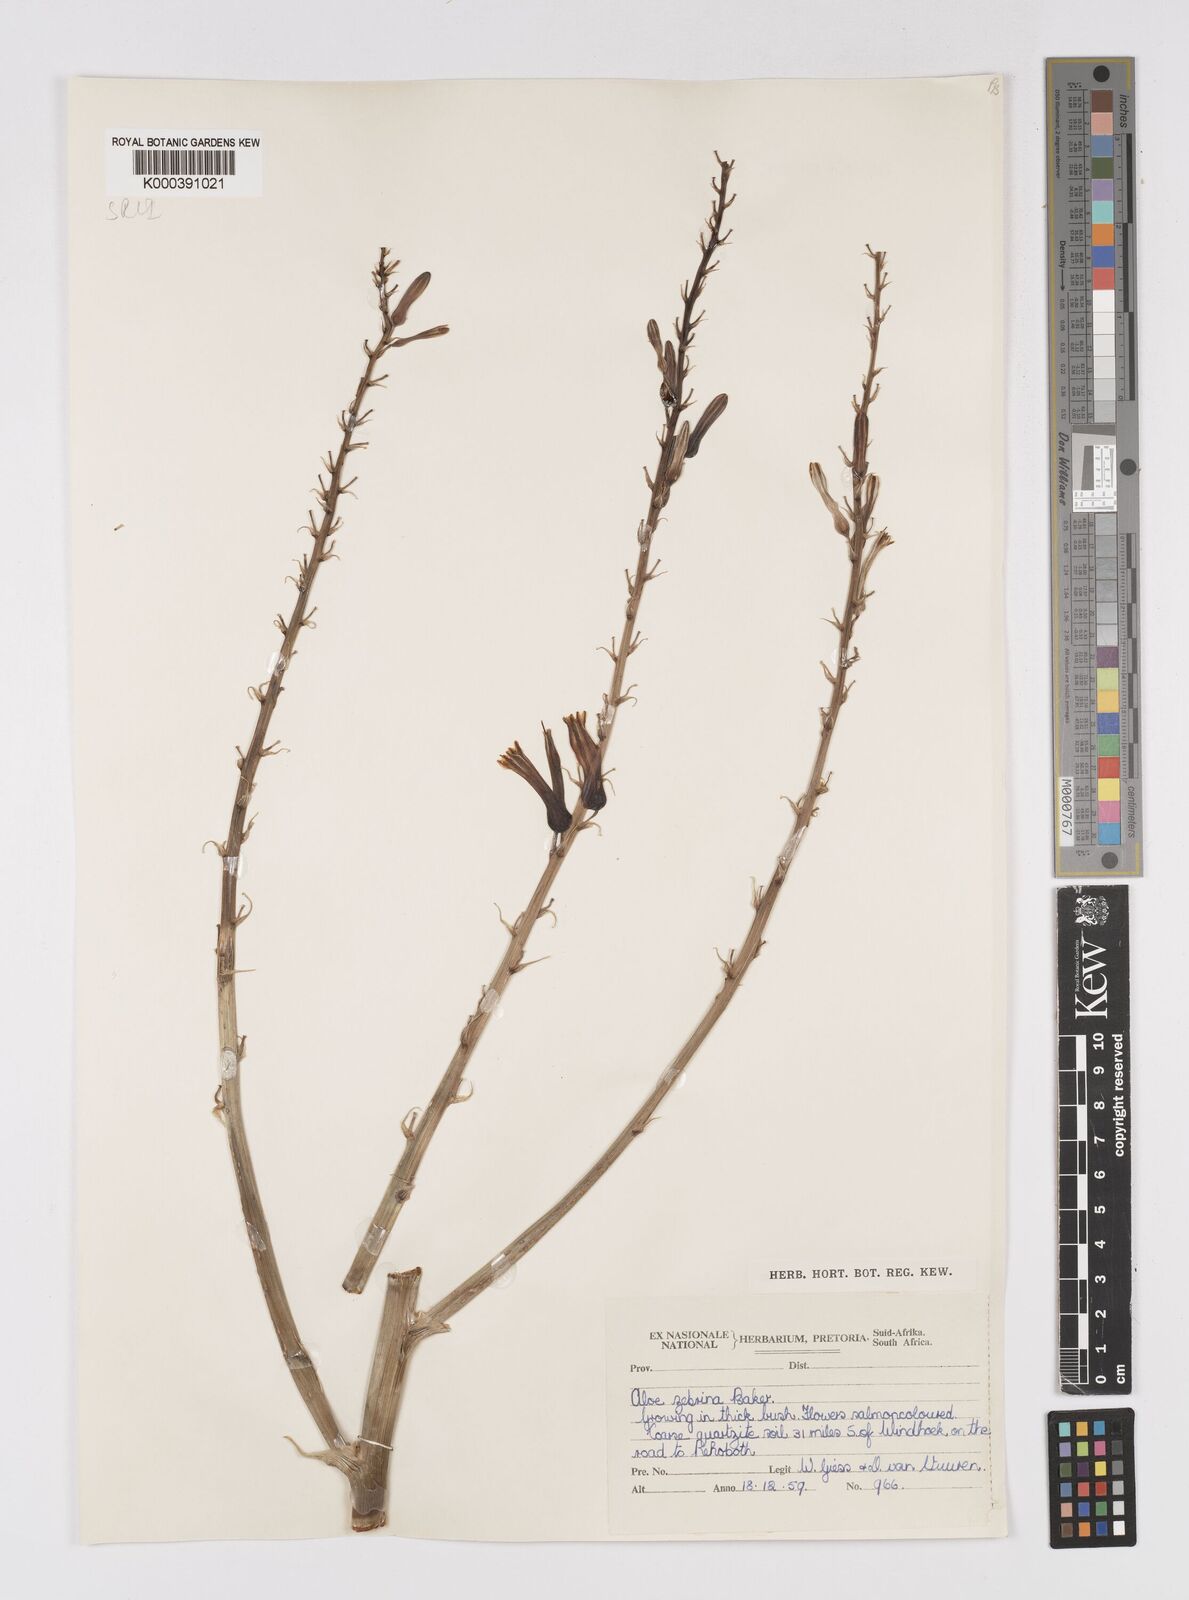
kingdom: Plantae
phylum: Tracheophyta
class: Liliopsida
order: Asparagales
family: Asphodelaceae
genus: Aloe
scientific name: Aloe zebrina
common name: Zebra-leaf aloe
